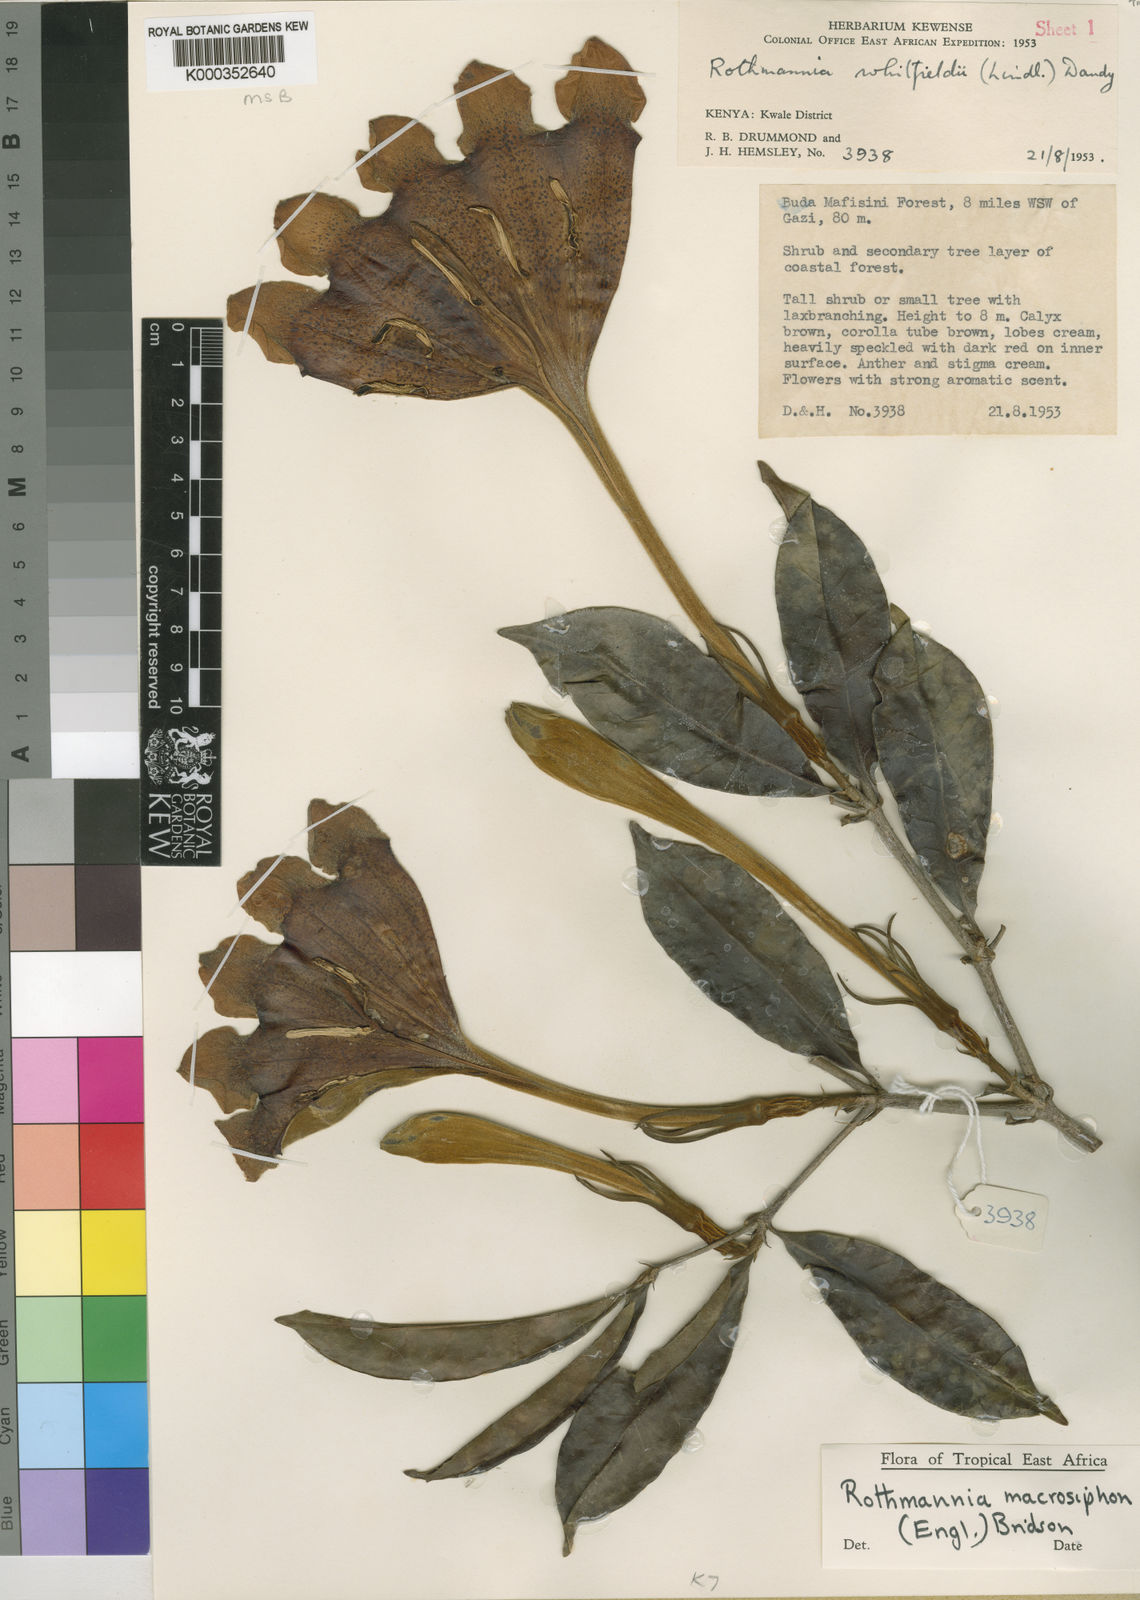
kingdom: Plantae
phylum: Tracheophyta
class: Magnoliopsida
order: Gentianales
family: Rubiaceae
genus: Rothmannia
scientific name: Rothmannia macrosiphon
